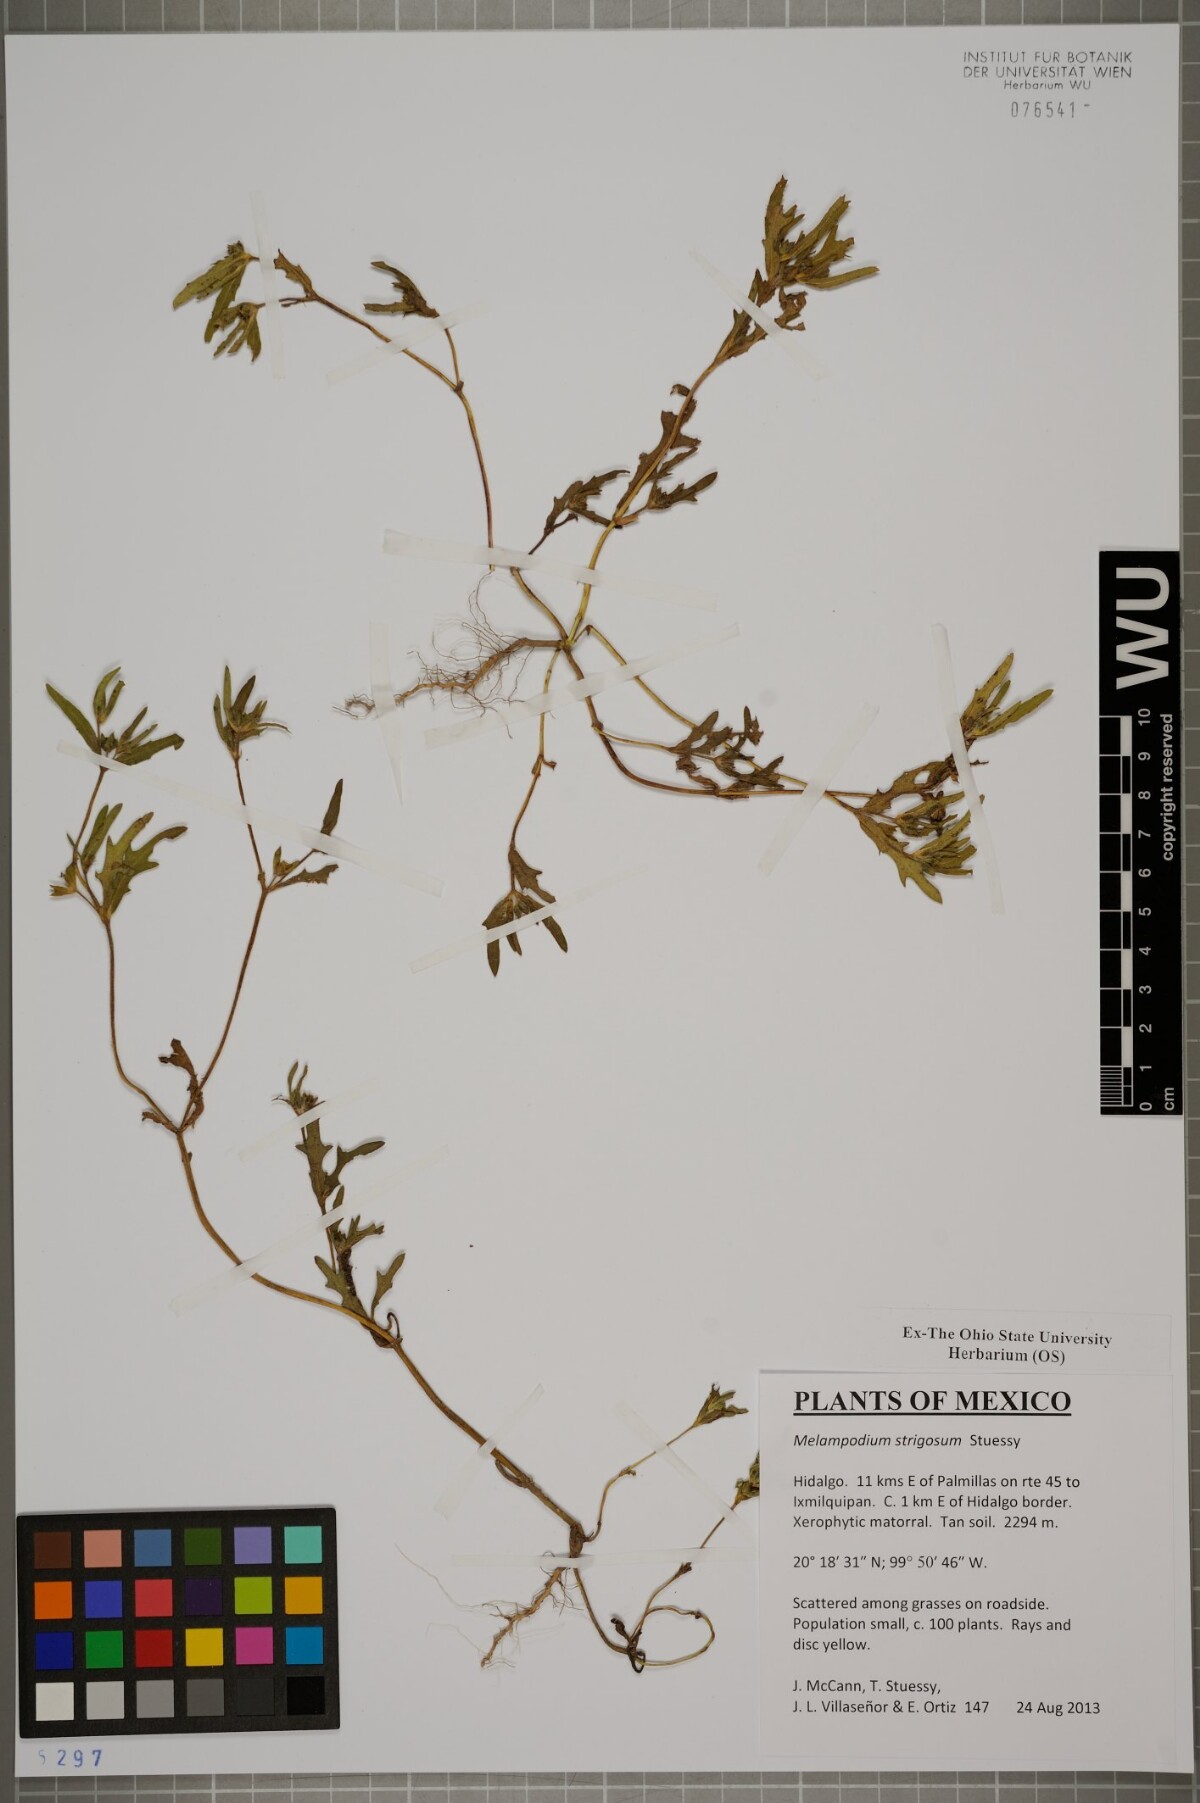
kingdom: Plantae
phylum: Tracheophyta
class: Magnoliopsida
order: Asterales
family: Asteraceae
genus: Melampodium
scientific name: Melampodium strigosum
